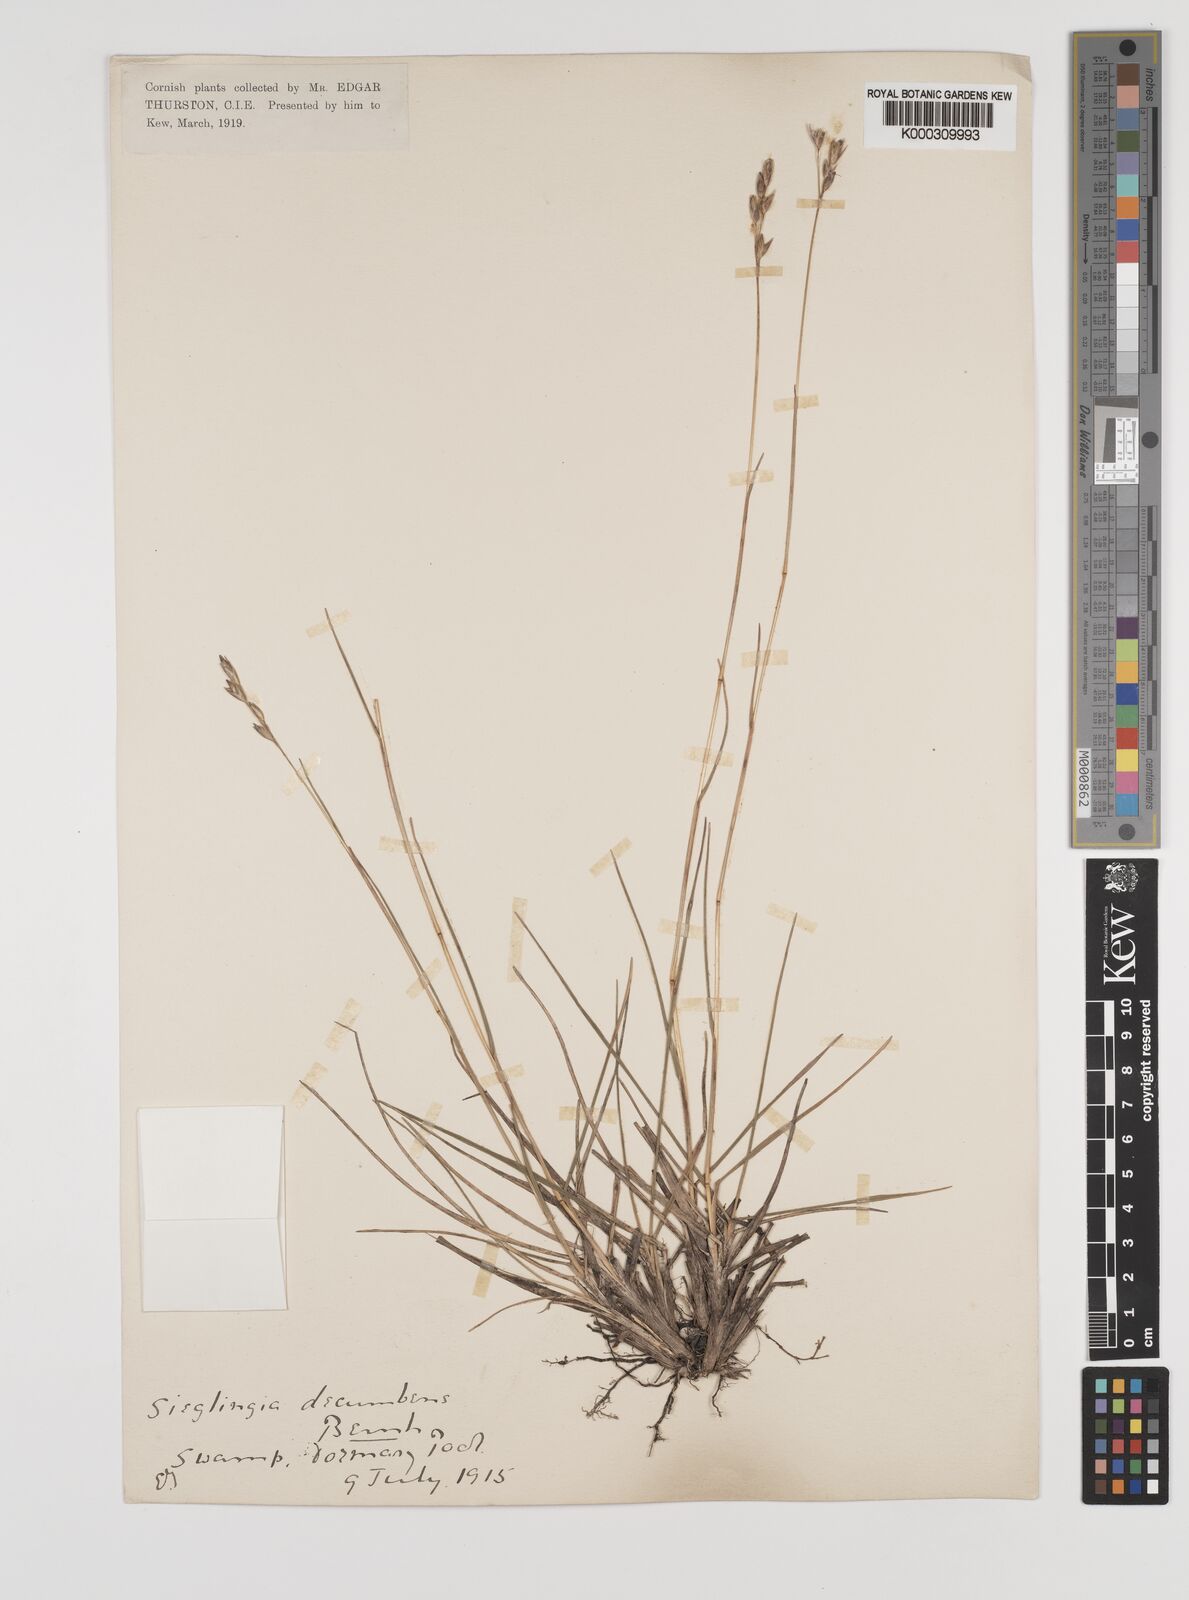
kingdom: Plantae
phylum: Tracheophyta
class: Liliopsida
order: Poales
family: Poaceae
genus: Danthonia
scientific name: Danthonia decumbens
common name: Common heathgrass
